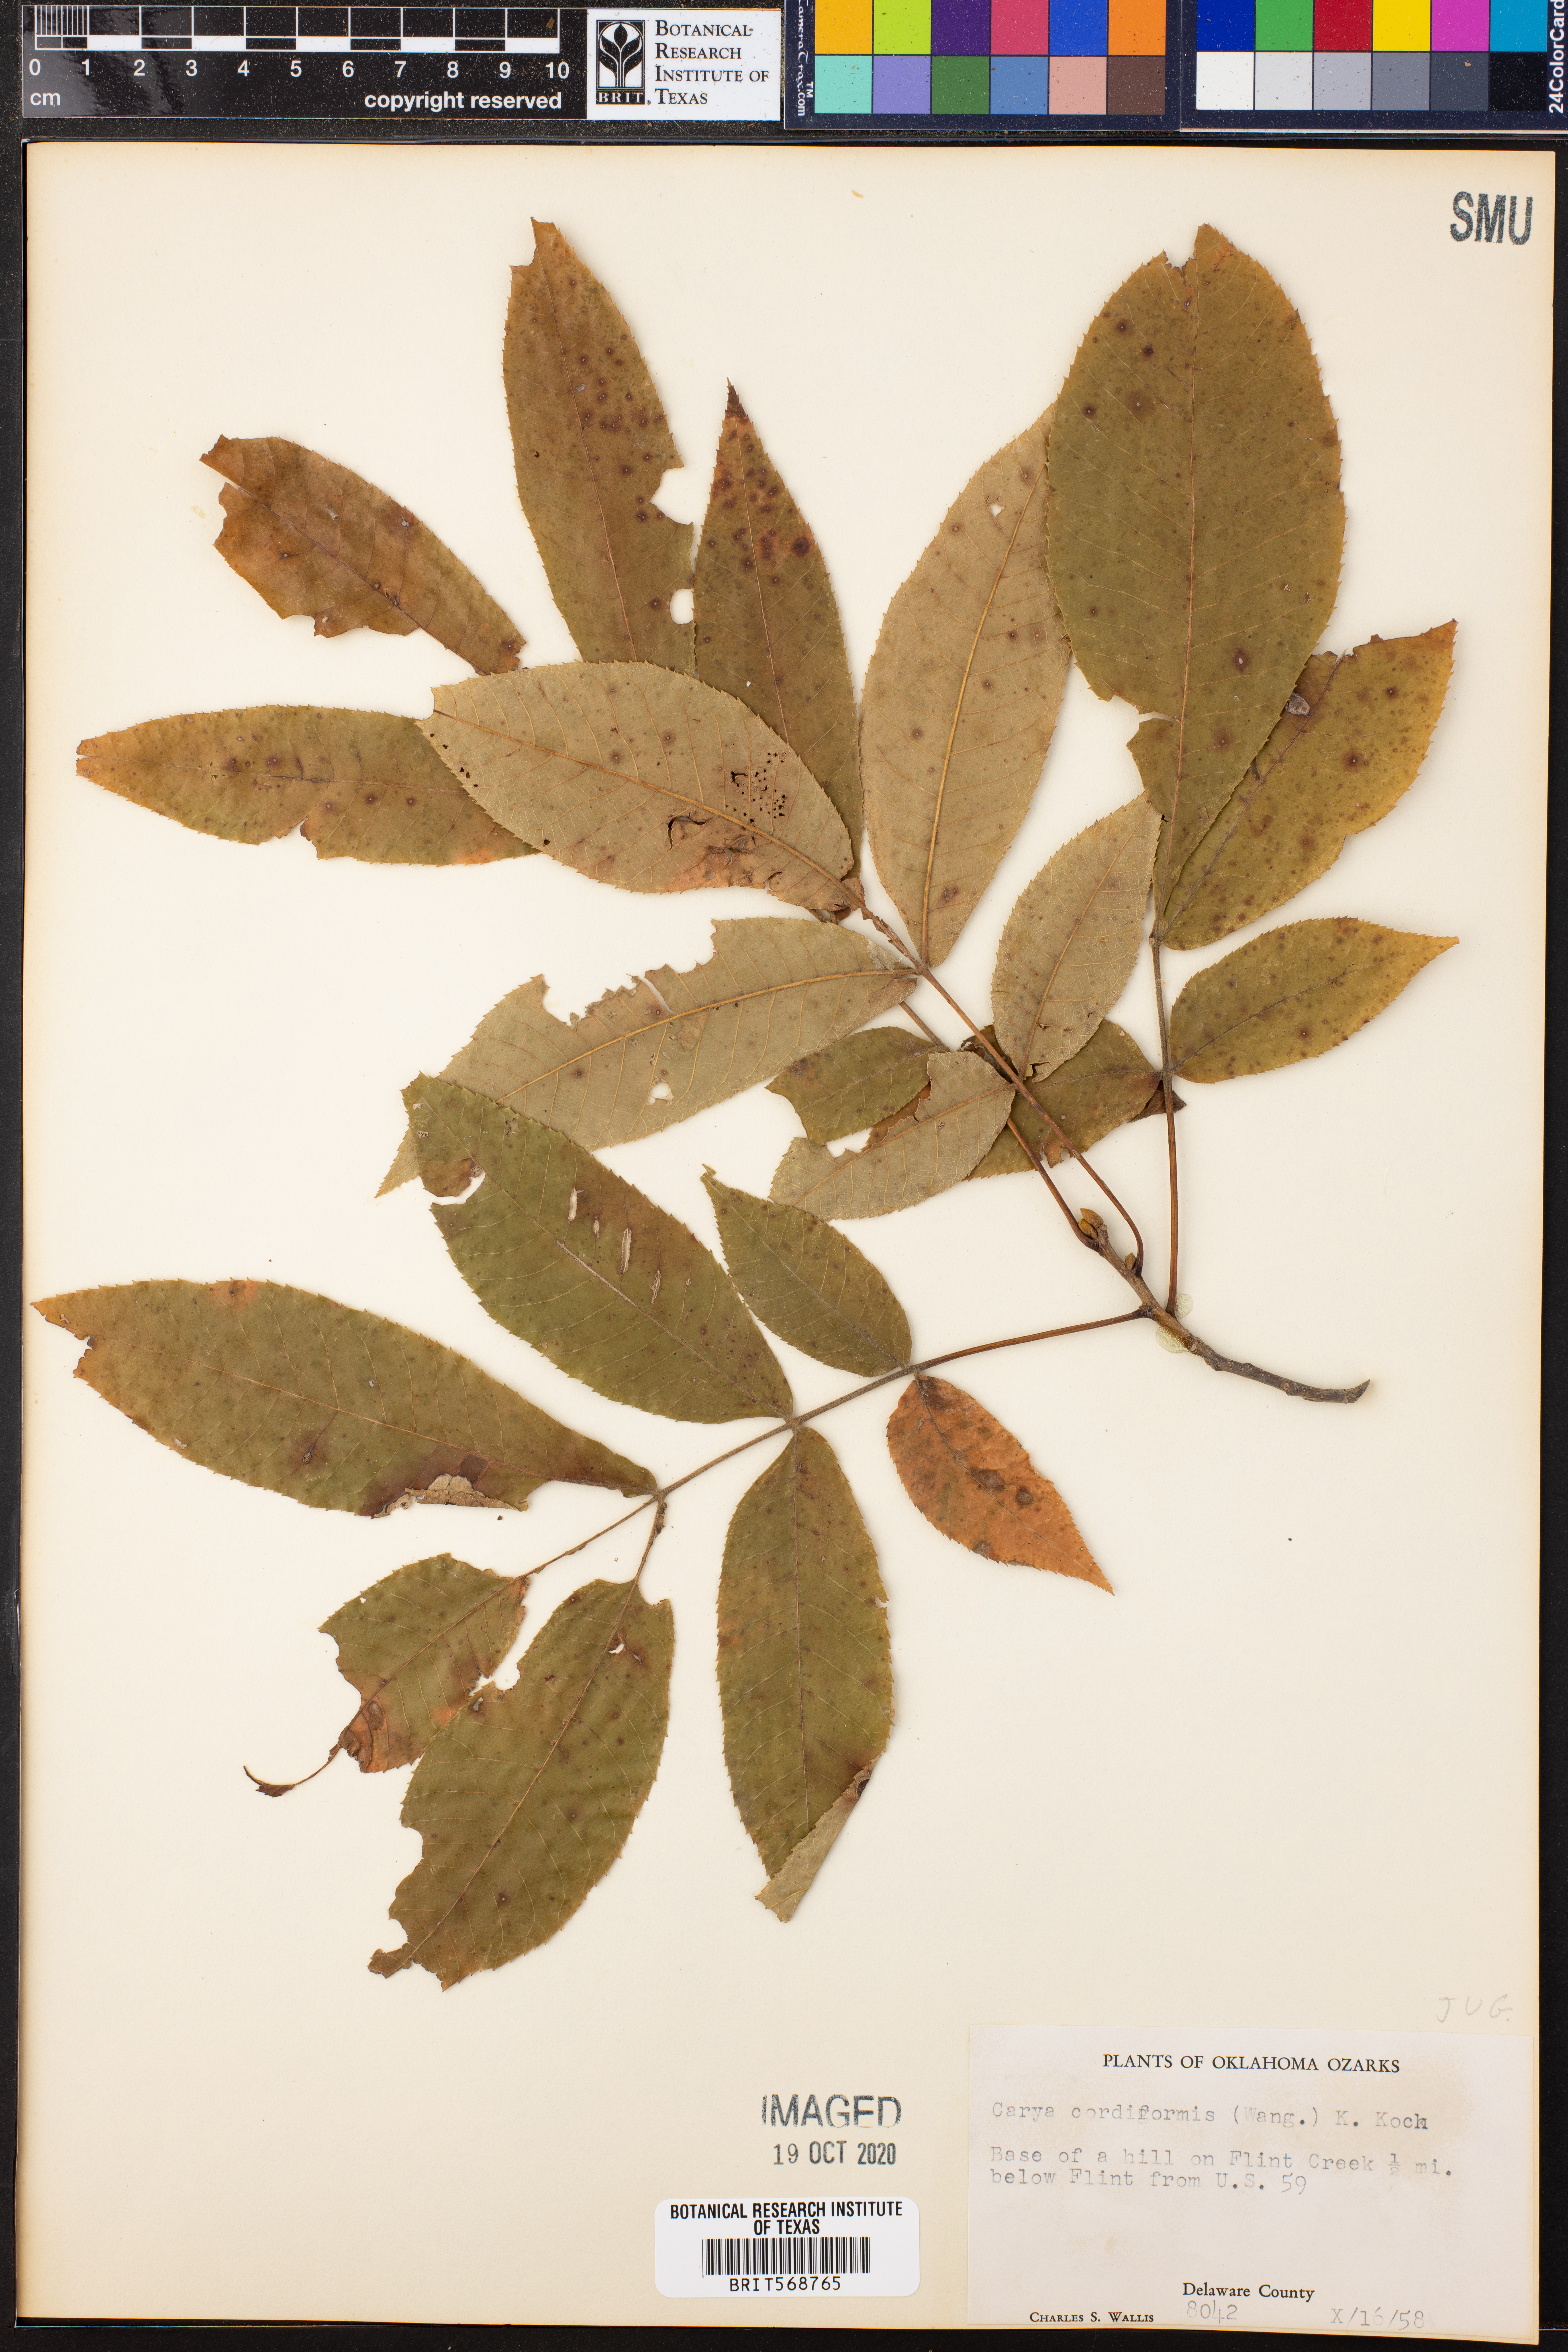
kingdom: Plantae
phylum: Tracheophyta
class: Magnoliopsida
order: Fagales
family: Juglandaceae
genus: Carya
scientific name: Carya cordiformis
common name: Bitternut hickory
